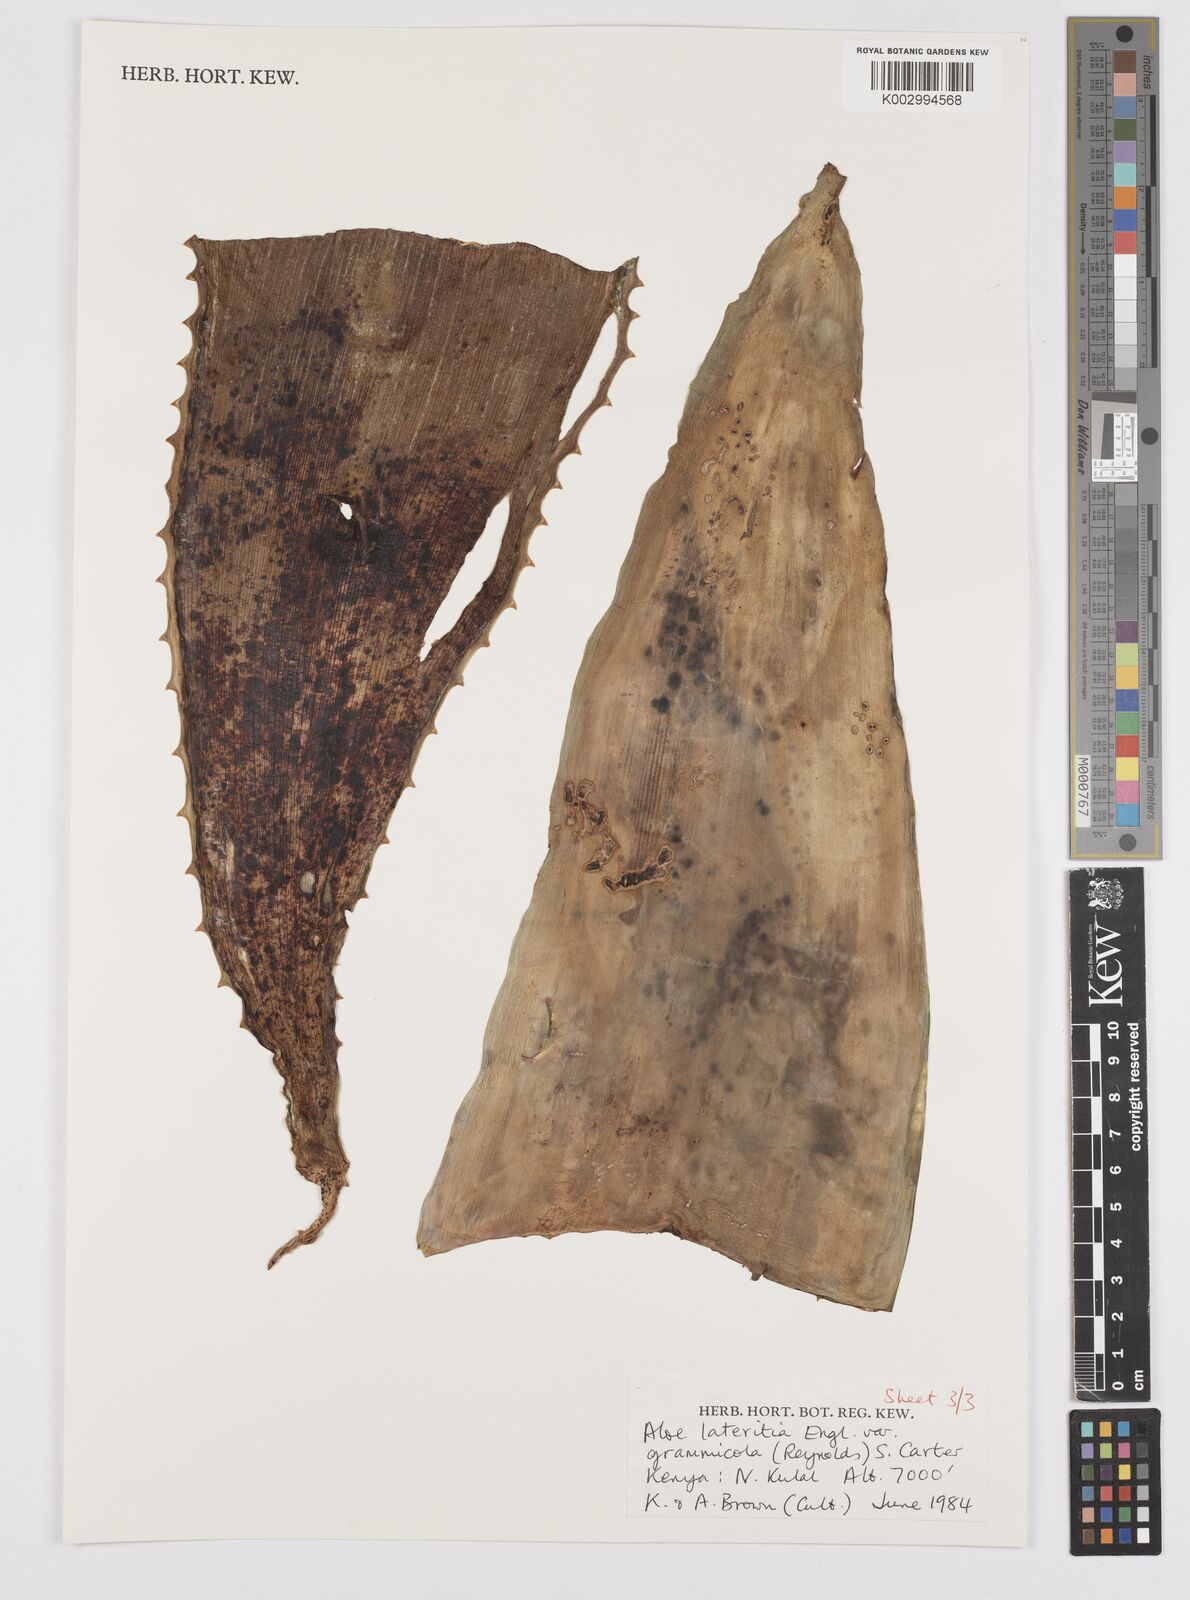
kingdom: Plantae
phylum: Tracheophyta
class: Liliopsida
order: Asparagales
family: Asphodelaceae
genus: Aloe
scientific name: Aloe lateritia
